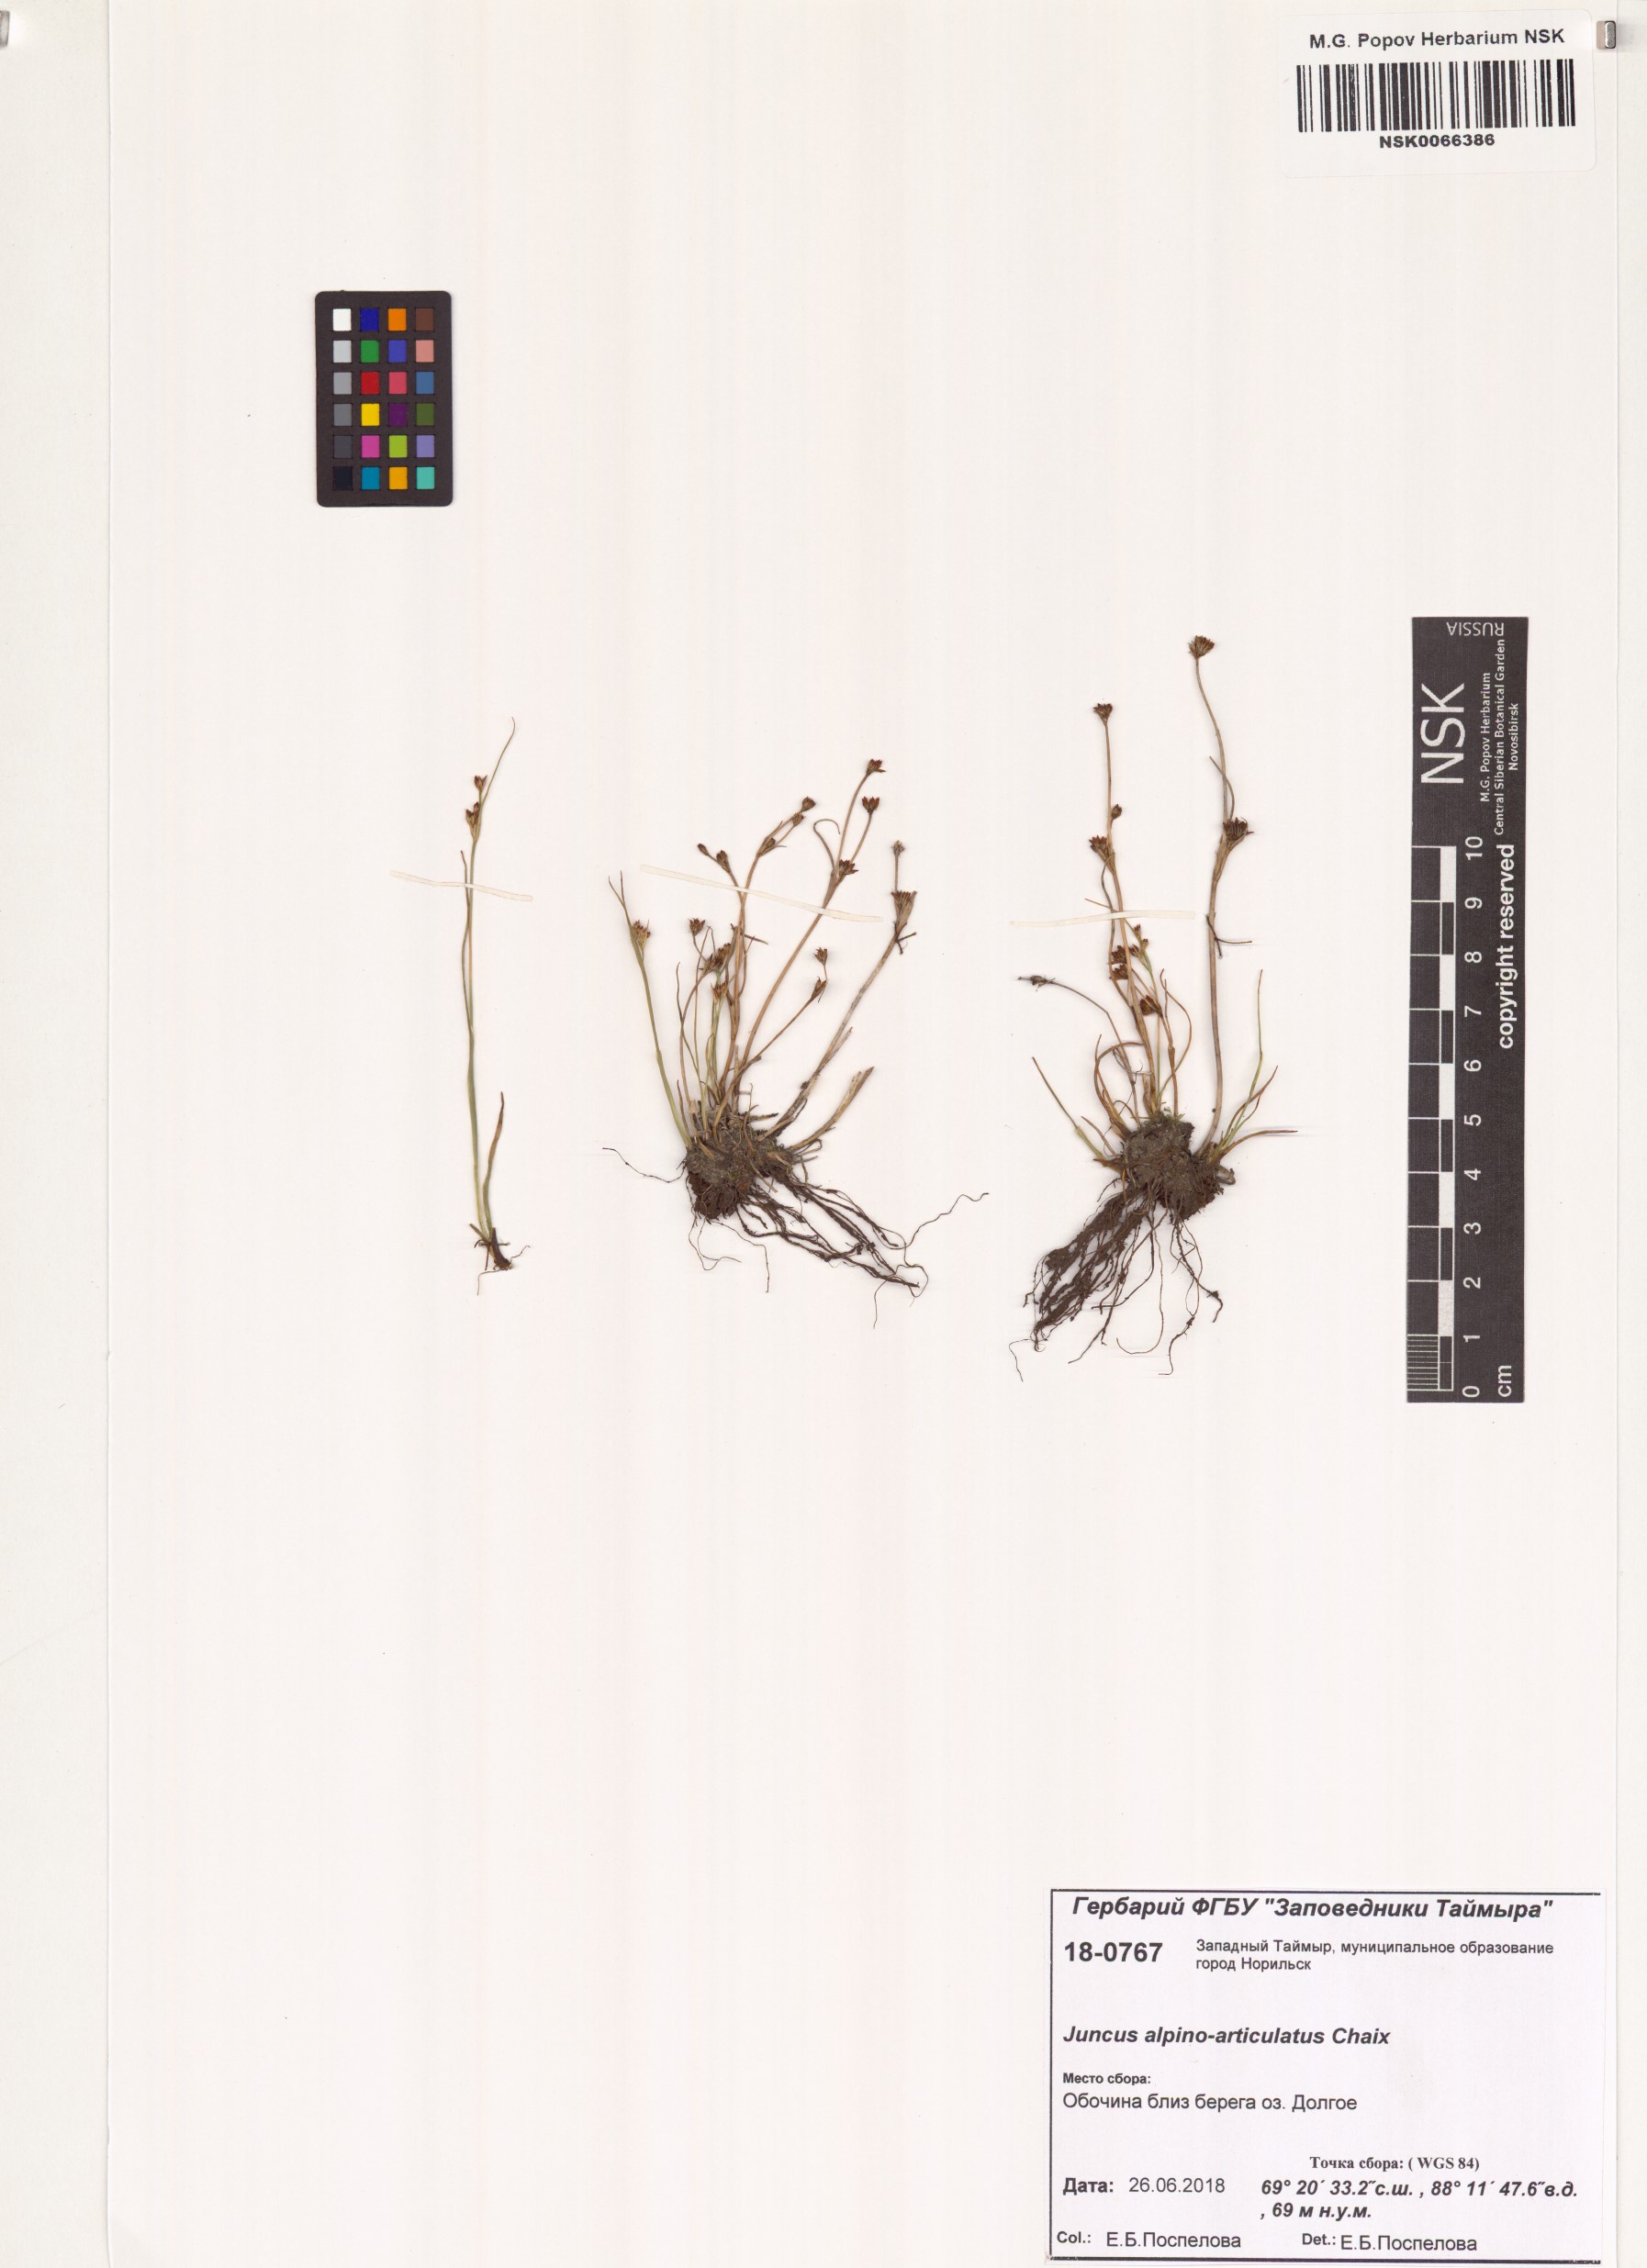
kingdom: Plantae
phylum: Tracheophyta
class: Liliopsida
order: Poales
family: Juncaceae
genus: Juncus
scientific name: Juncus alpinoarticulatus
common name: Alpine rush
